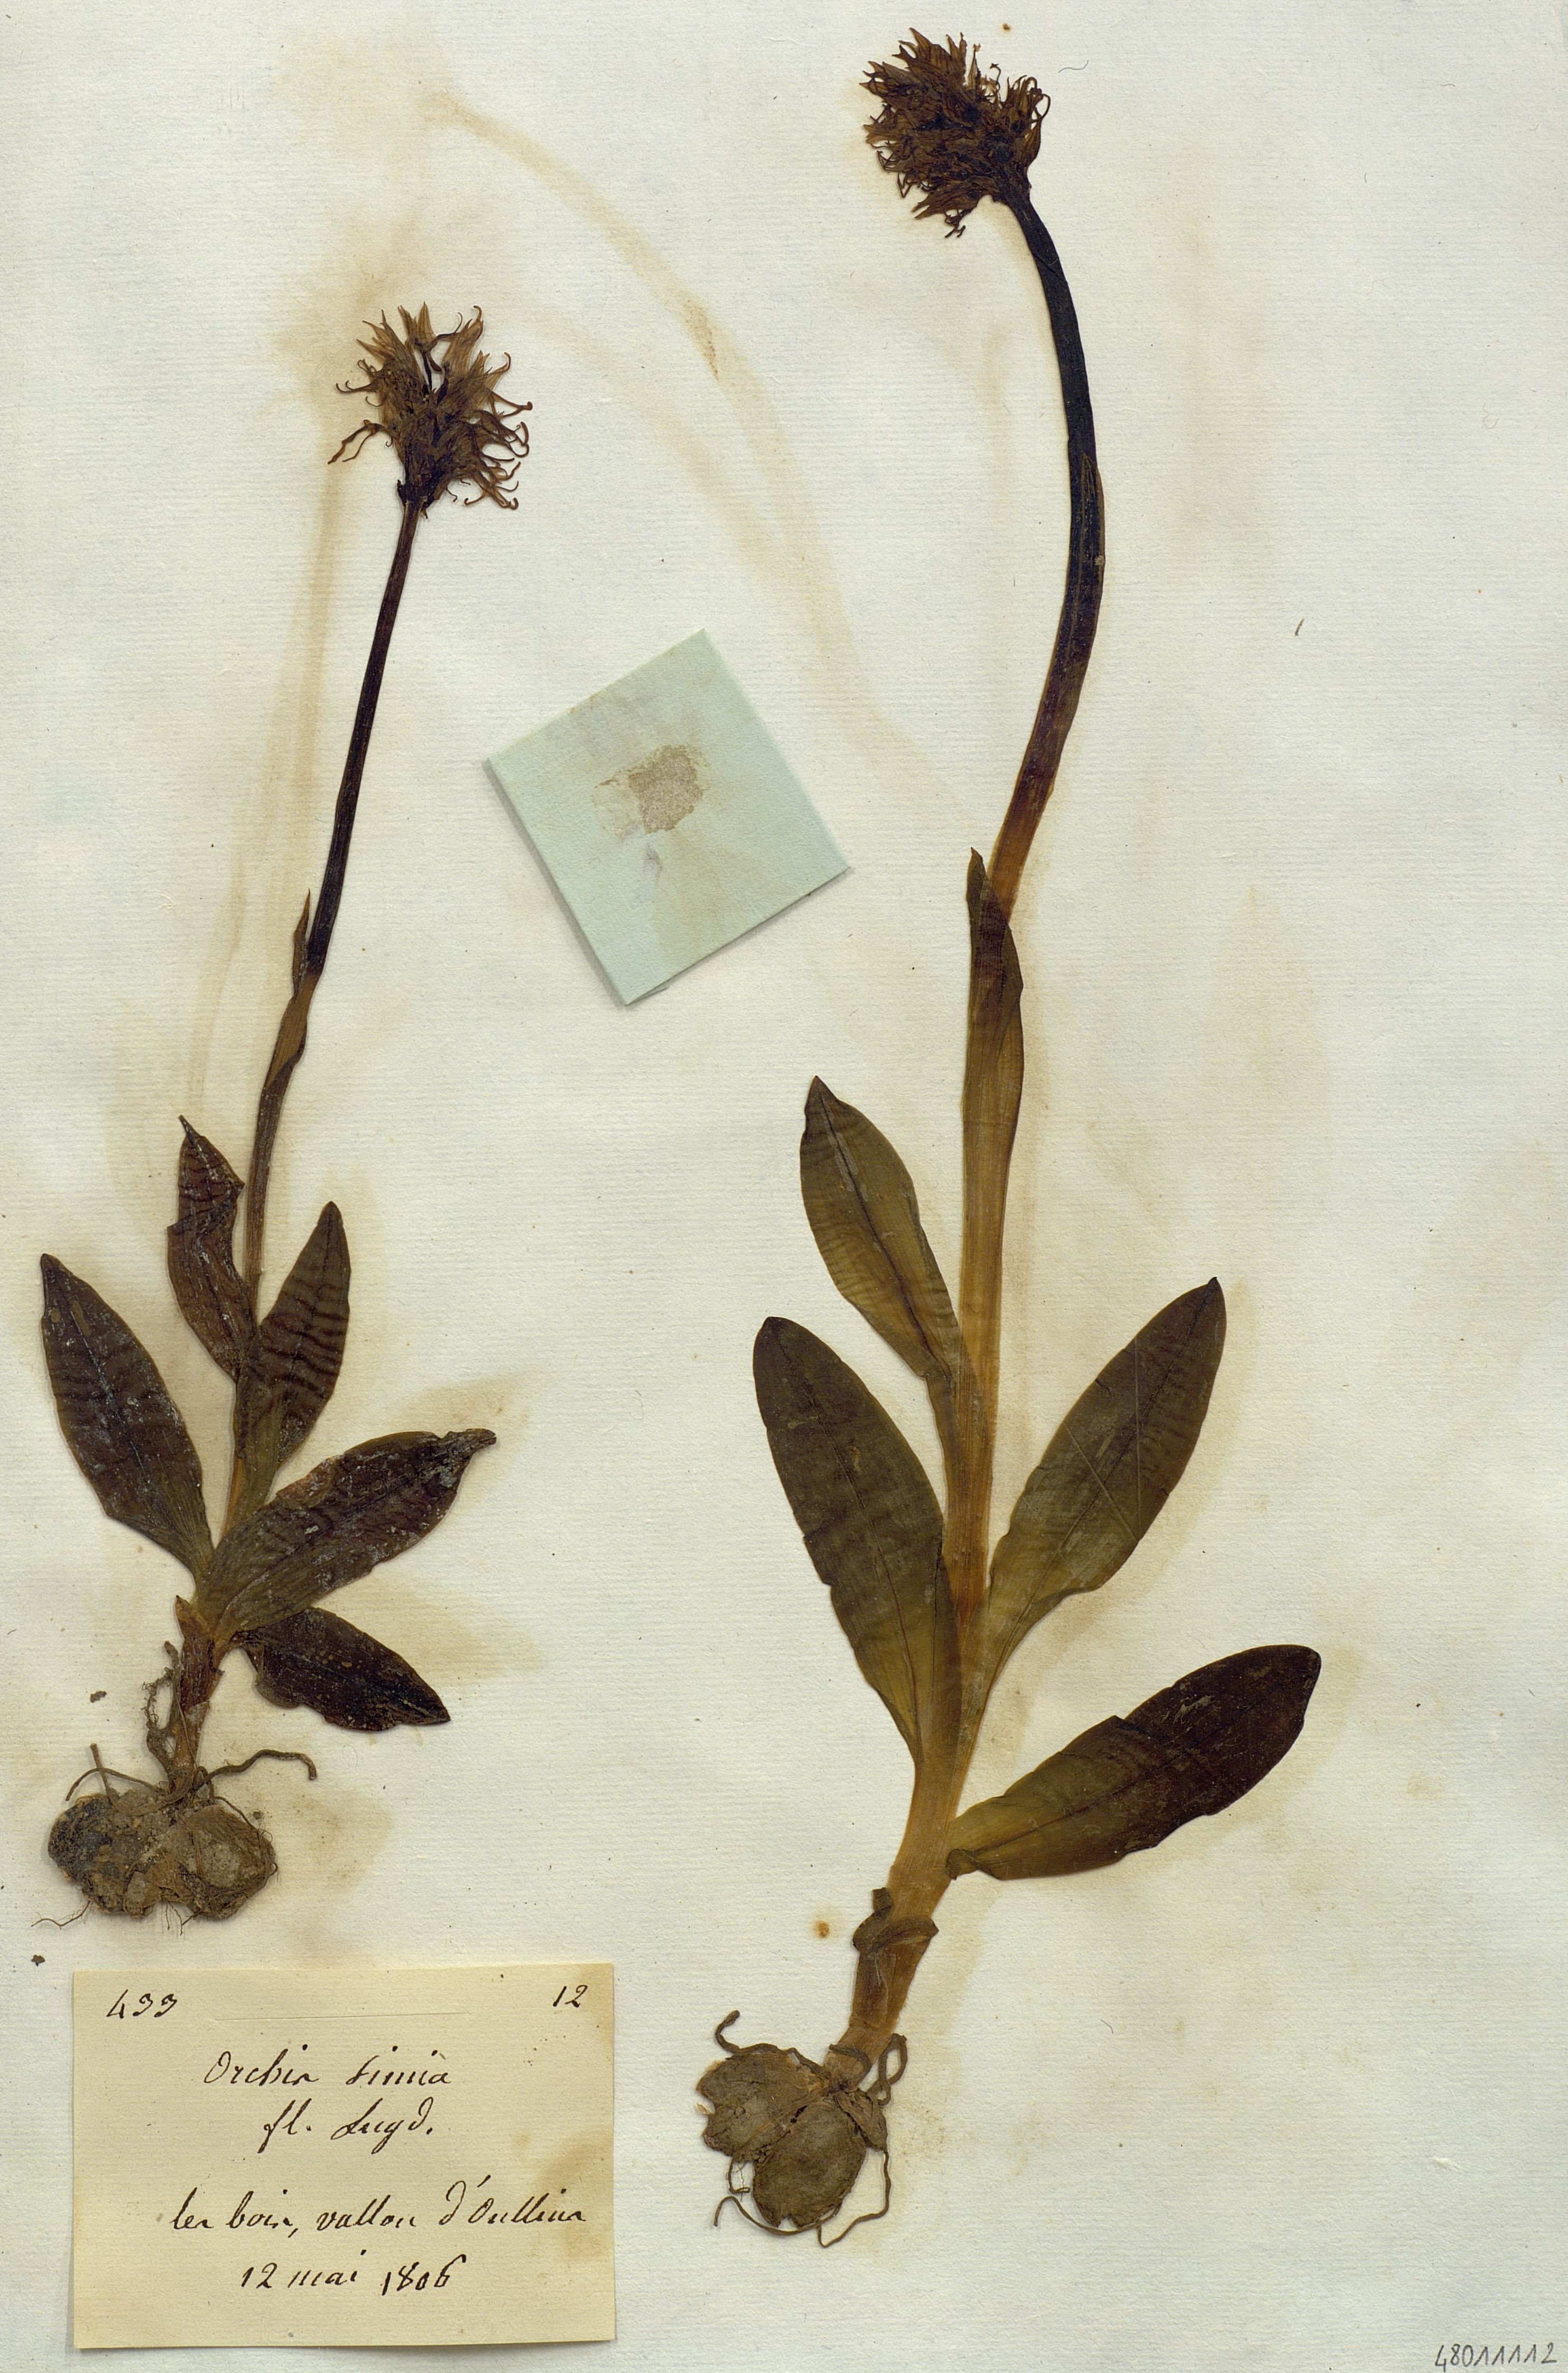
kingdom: Plantae
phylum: Tracheophyta
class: Liliopsida
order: Asparagales
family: Orchidaceae
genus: Orchis
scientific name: Orchis simia
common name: Monkey orchid
